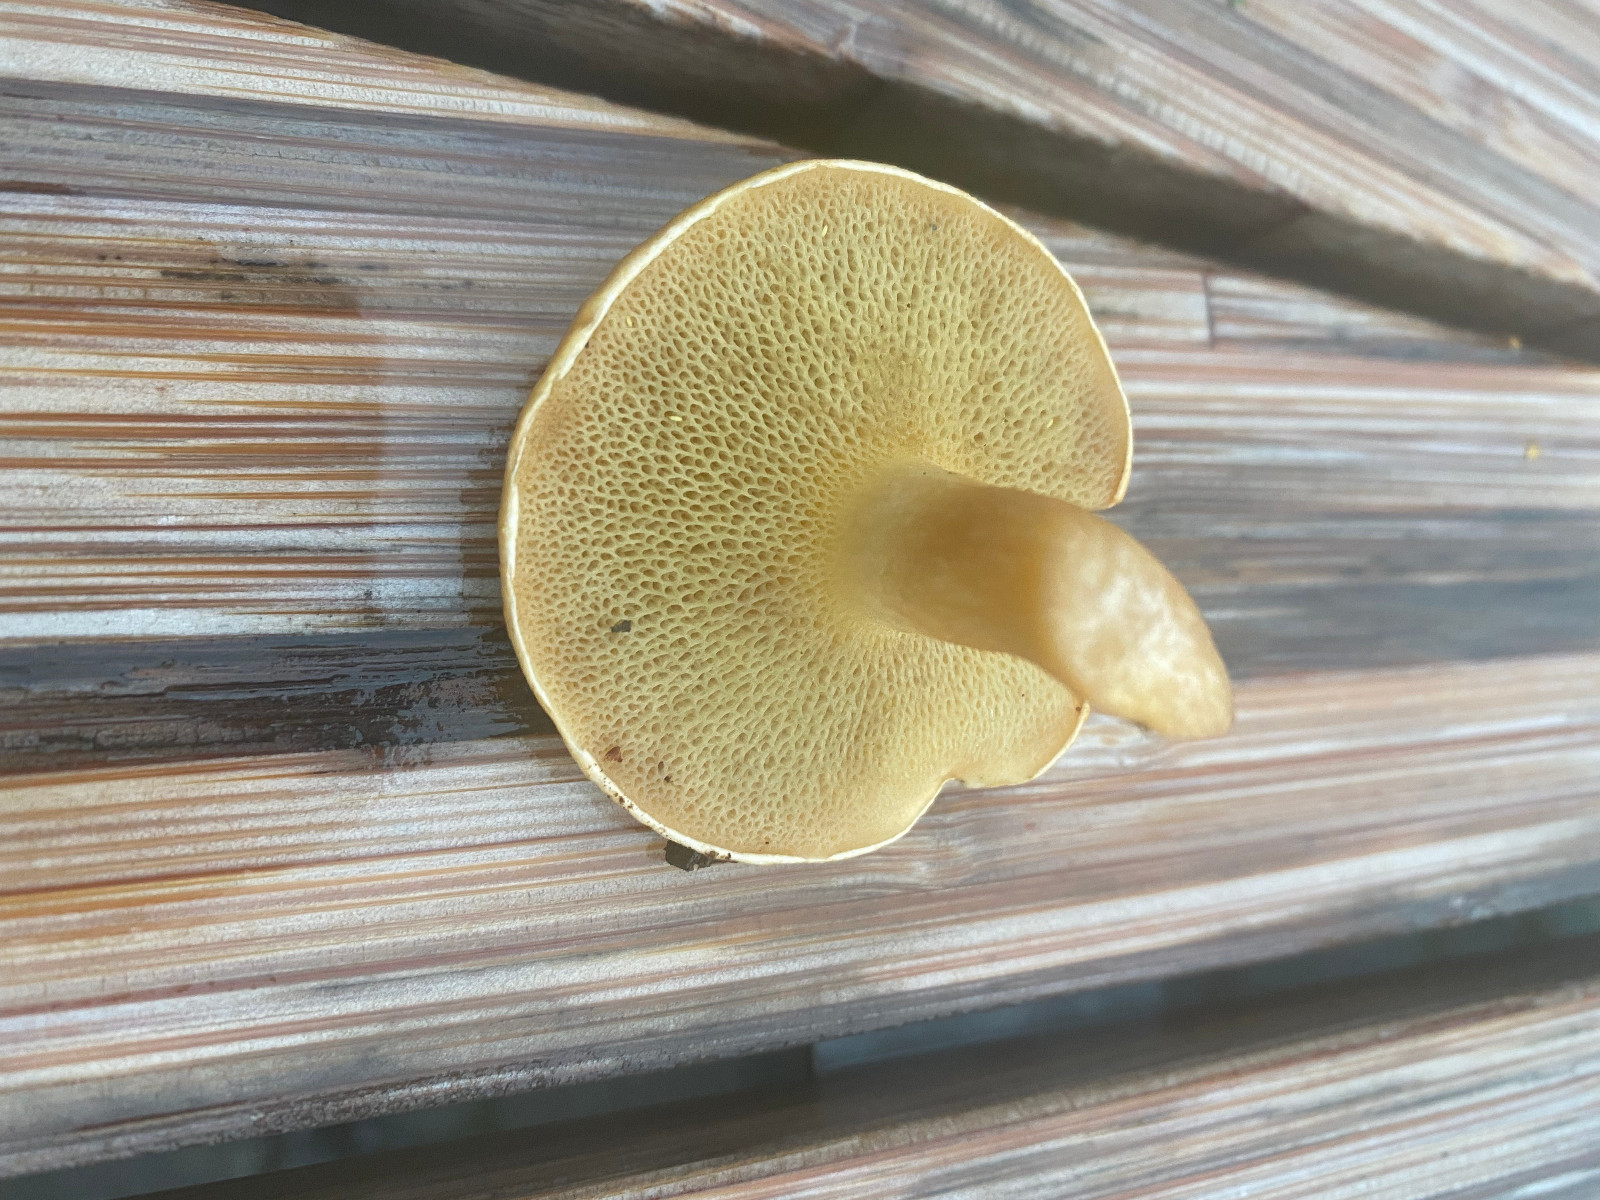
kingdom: Fungi
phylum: Basidiomycota
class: Agaricomycetes
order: Boletales
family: Suillaceae
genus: Suillus
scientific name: Suillus bovinus
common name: grovporet slimrørhat
